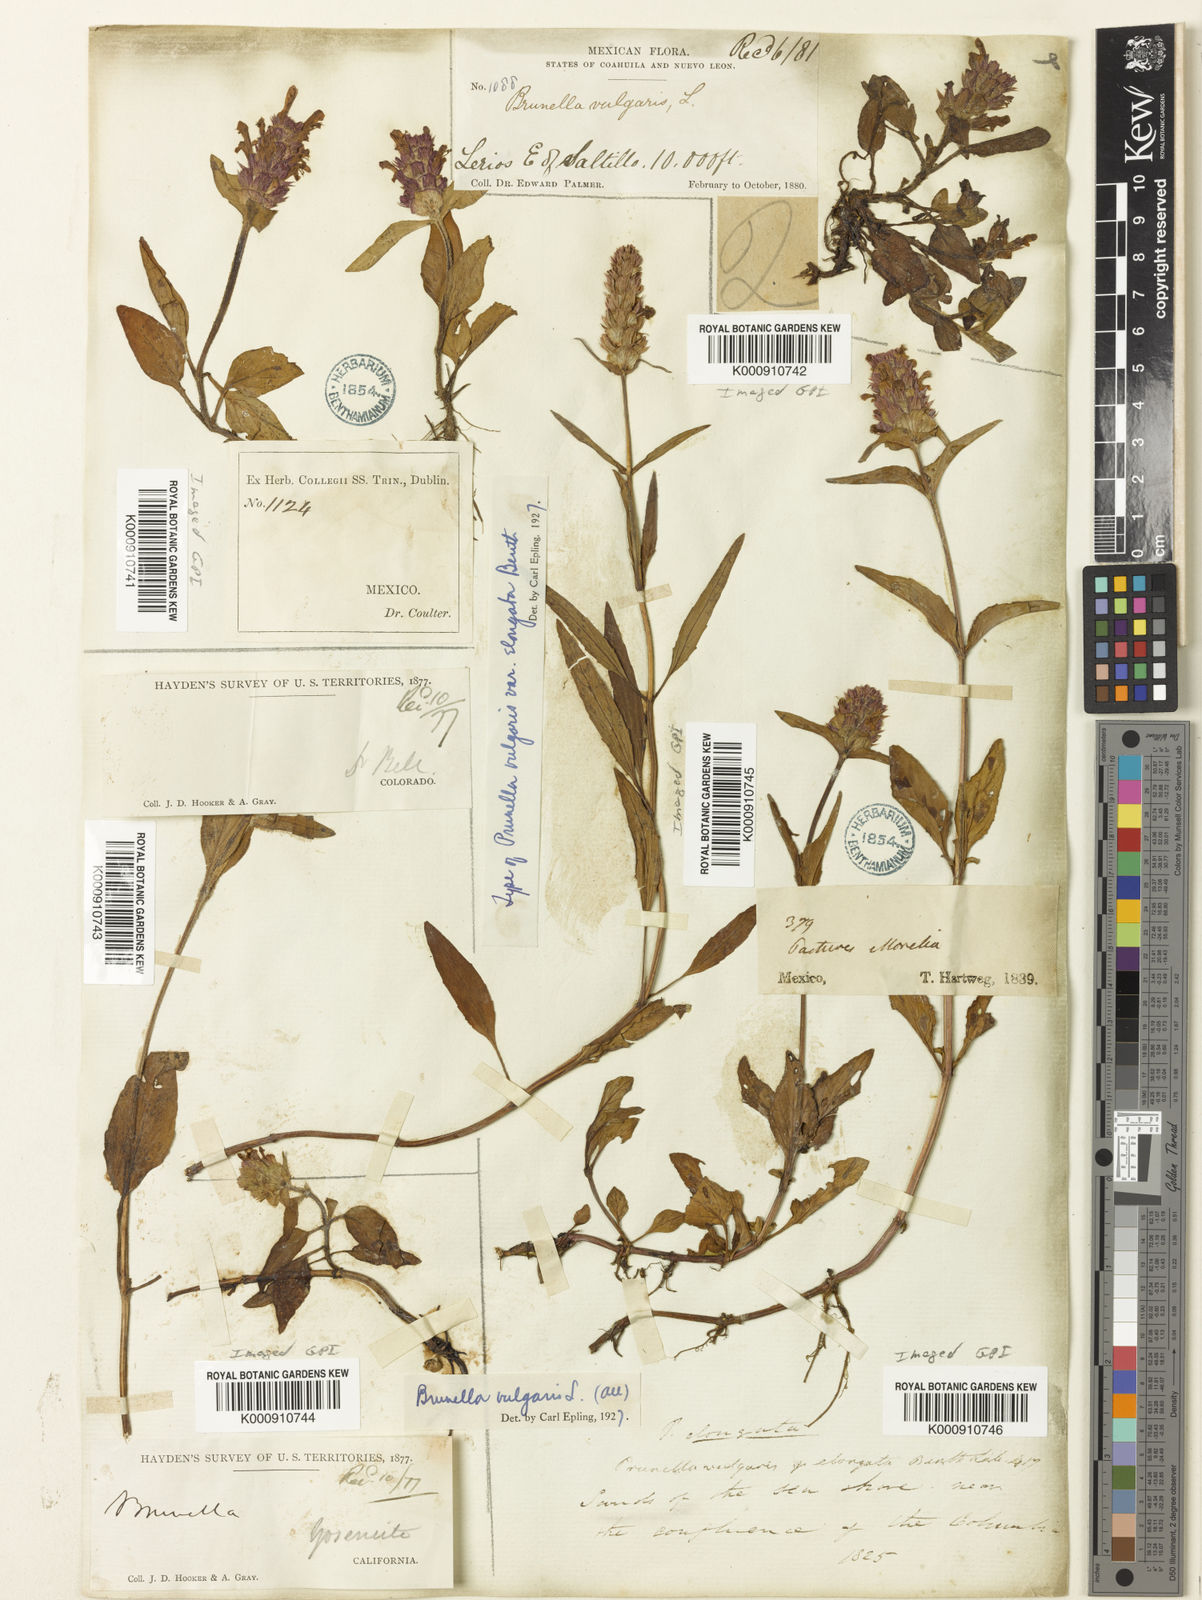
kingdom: Plantae
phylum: Tracheophyta
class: Magnoliopsida
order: Lamiales
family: Lamiaceae
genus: Prunella
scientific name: Prunella vulgaris
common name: Heal-all
